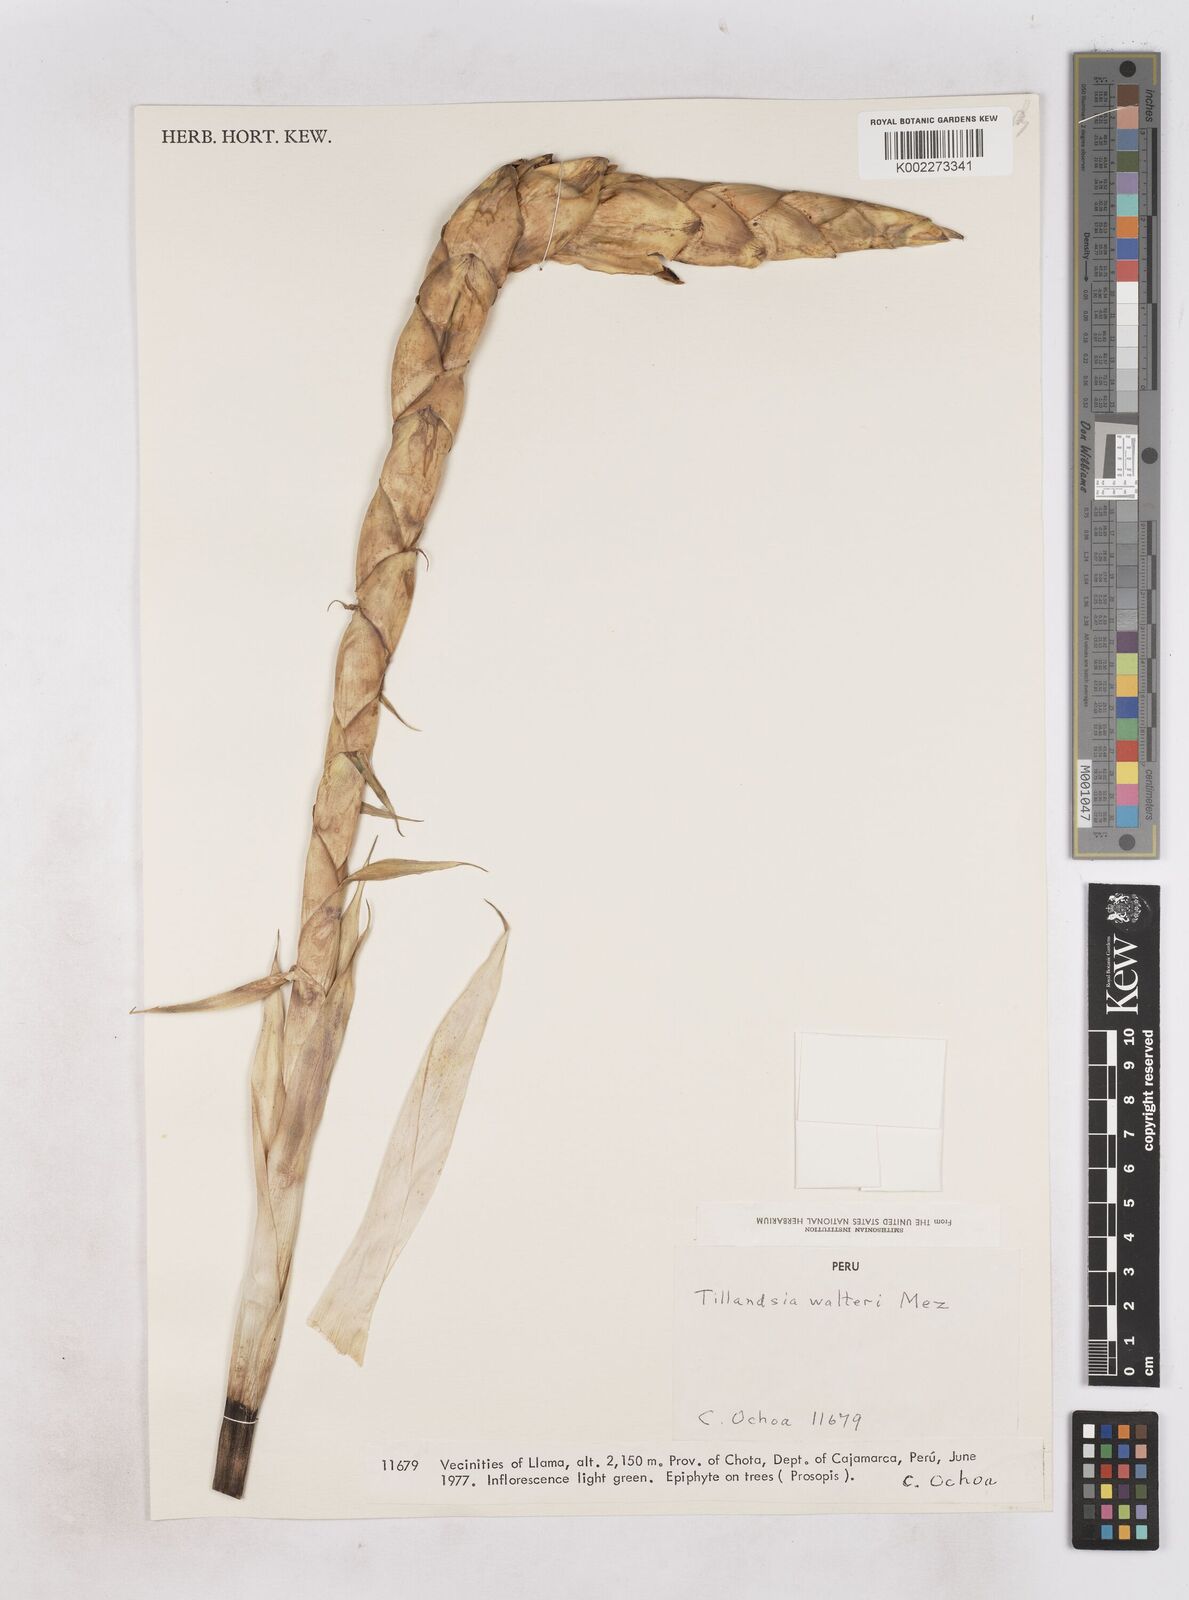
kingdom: Plantae
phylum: Tracheophyta
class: Liliopsida
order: Poales
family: Bromeliaceae
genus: Tillandsia
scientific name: Tillandsia walteri
